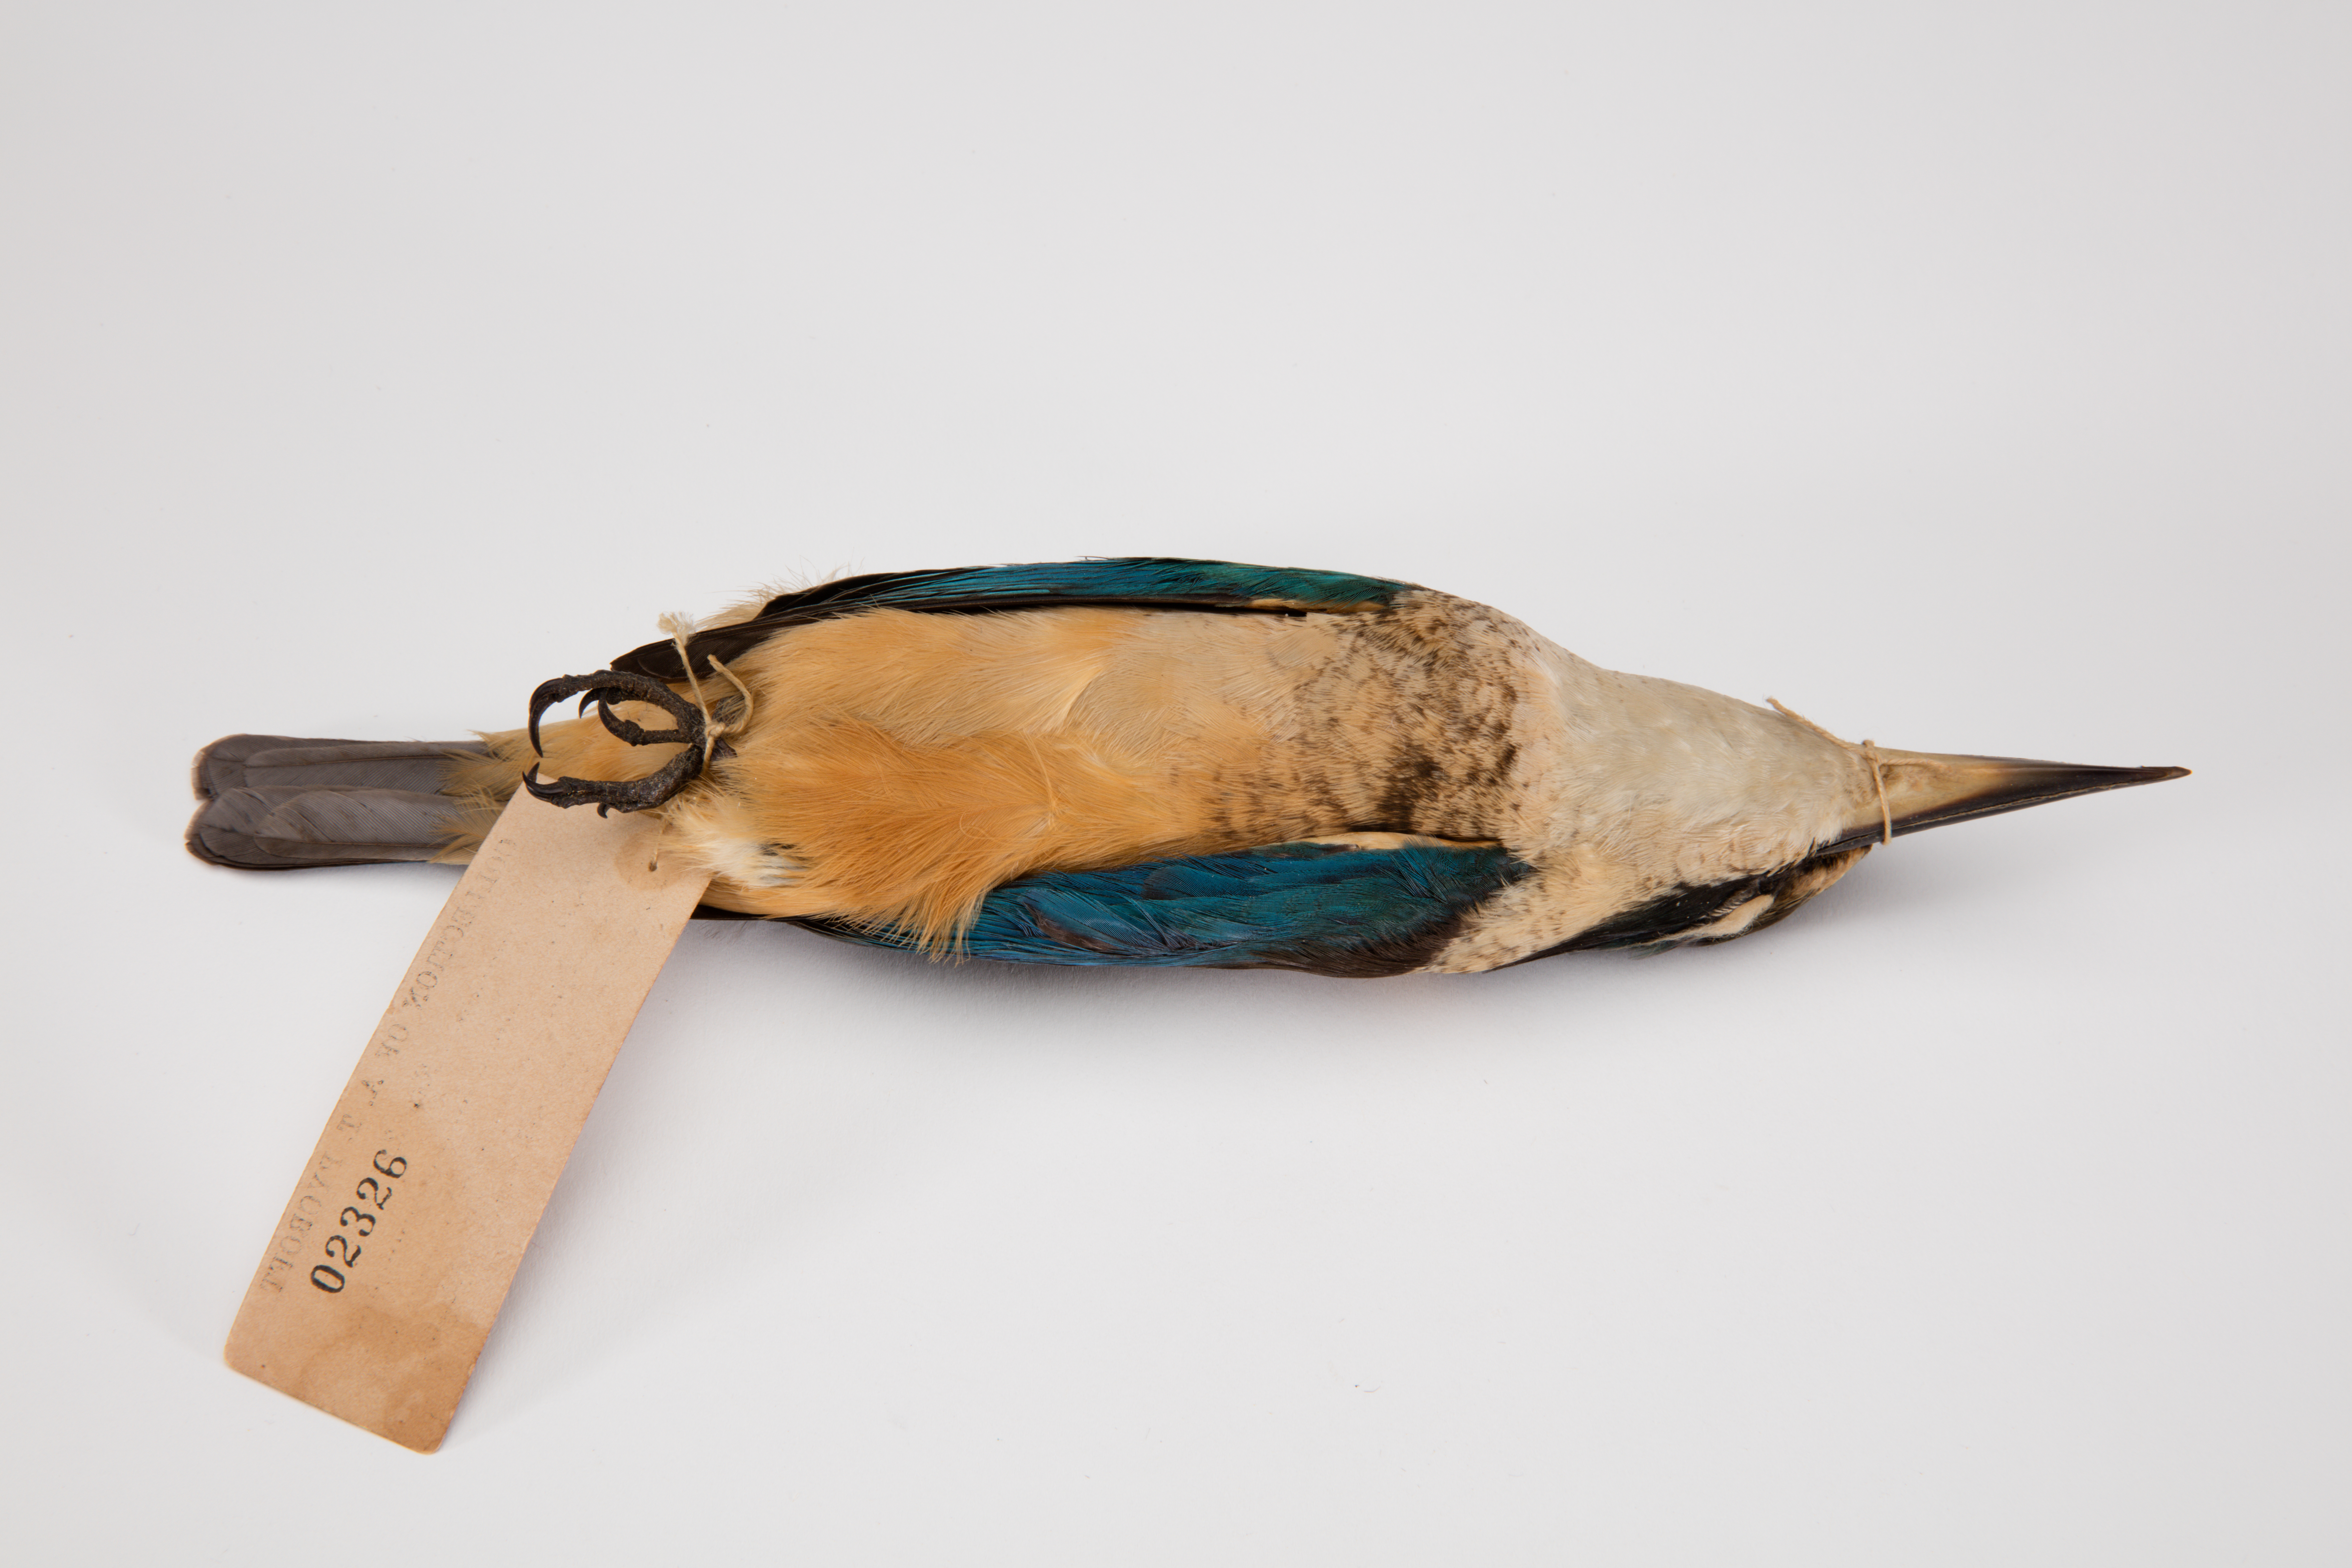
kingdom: Animalia
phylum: Chordata
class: Aves
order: Coraciiformes
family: Alcedinidae
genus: Todiramphus
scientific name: Todiramphus sanctus
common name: Sacred kingfisher
